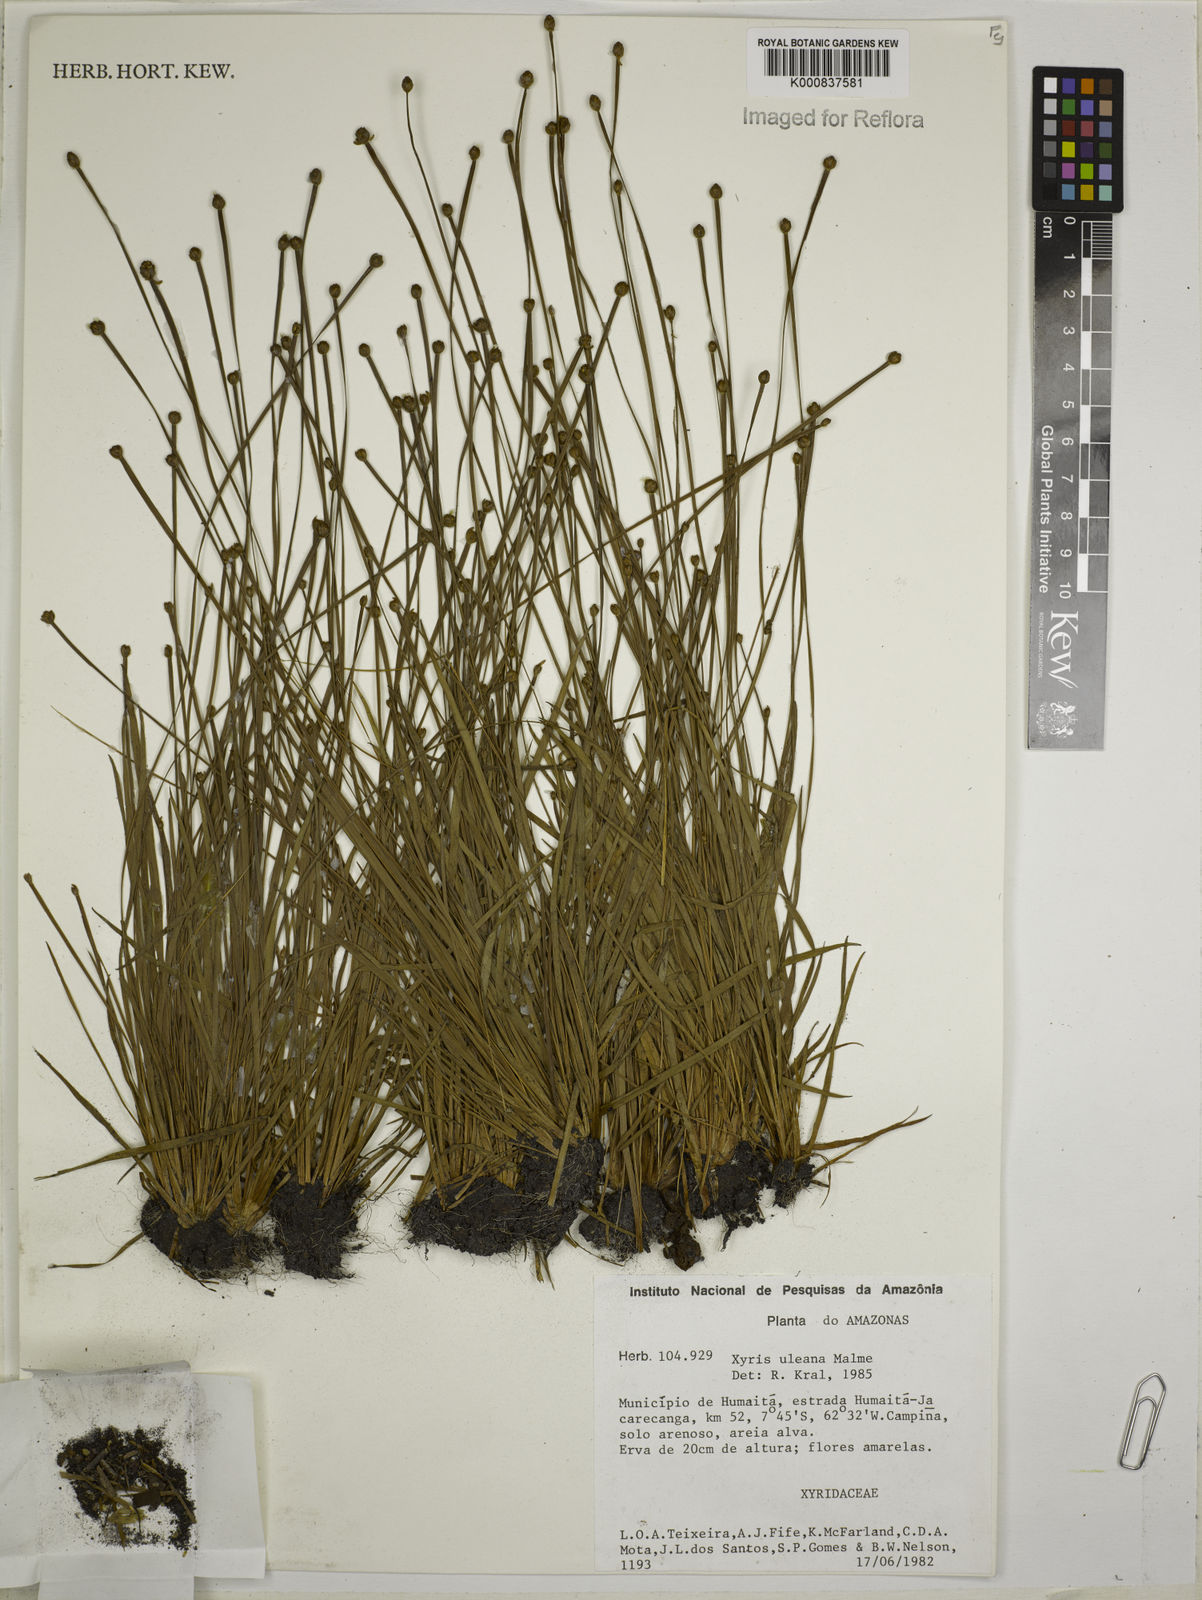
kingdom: Plantae
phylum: Tracheophyta
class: Liliopsida
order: Poales
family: Xyridaceae
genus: Xyris
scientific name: Xyris uleana
